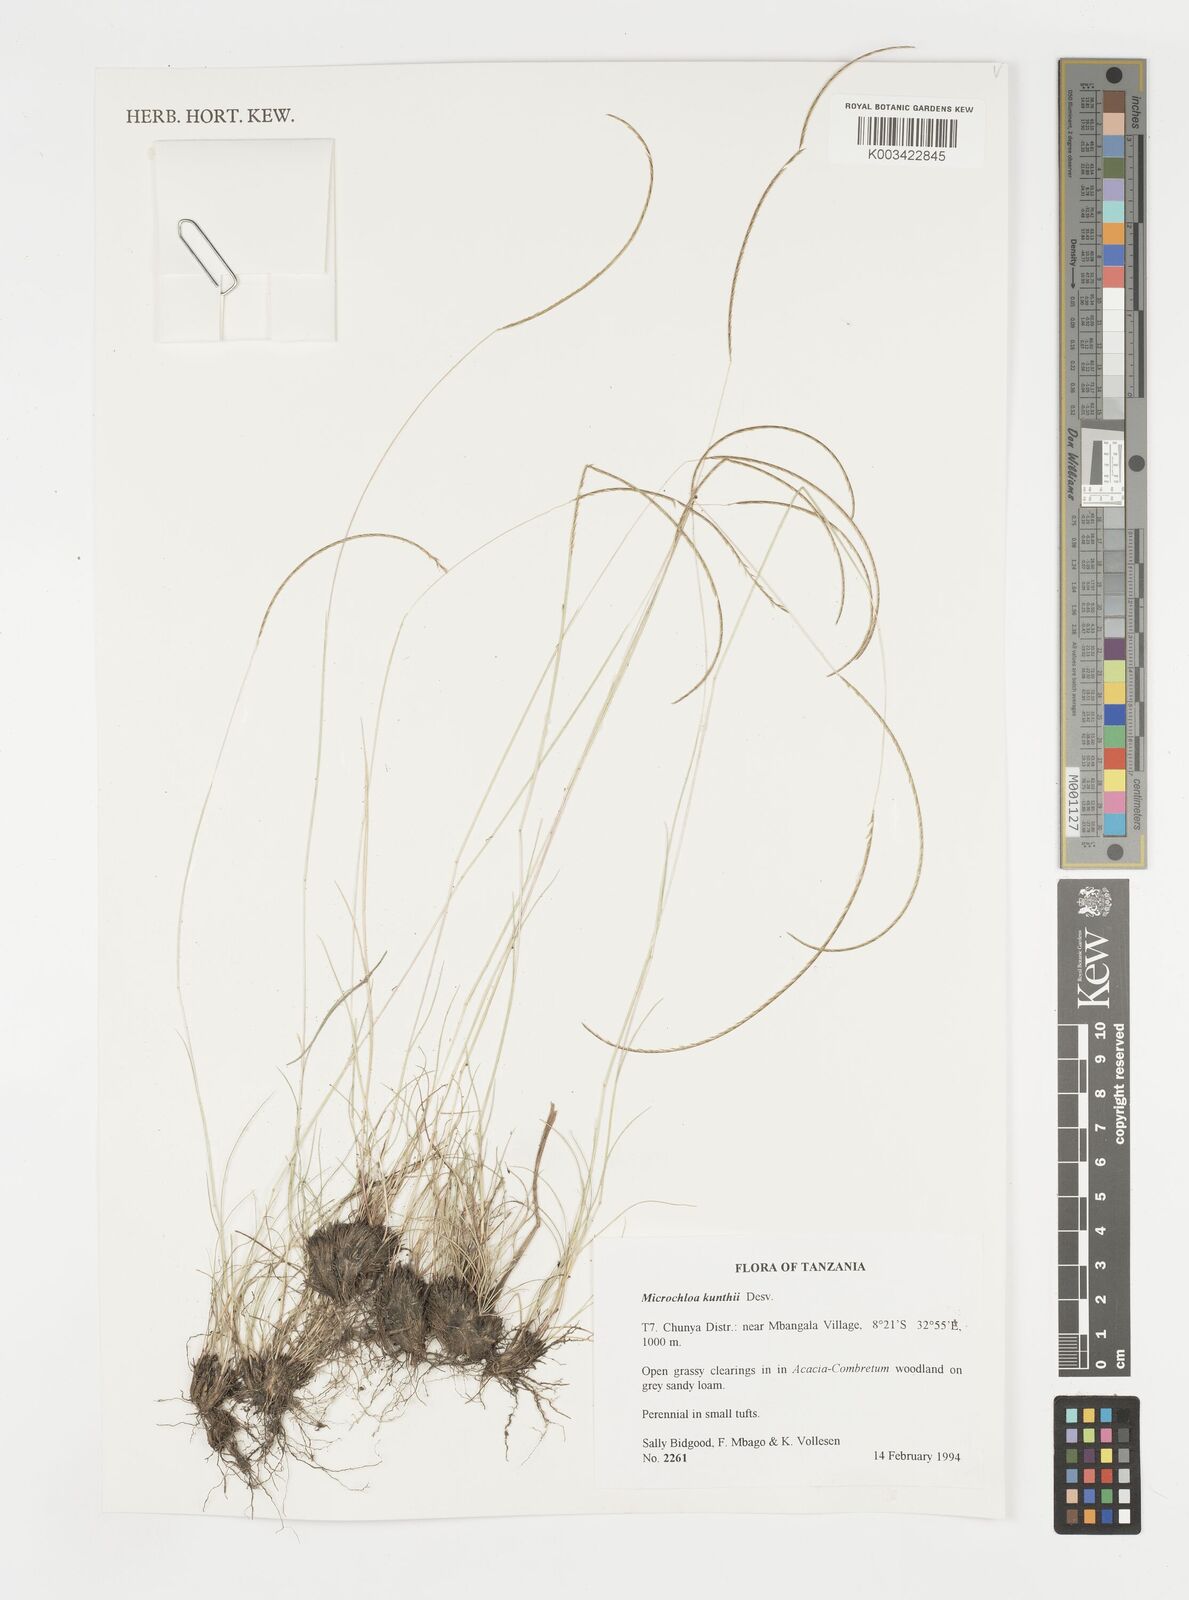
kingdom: Plantae
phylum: Tracheophyta
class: Liliopsida
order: Poales
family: Poaceae
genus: Microchloa
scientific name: Microchloa kunthii
